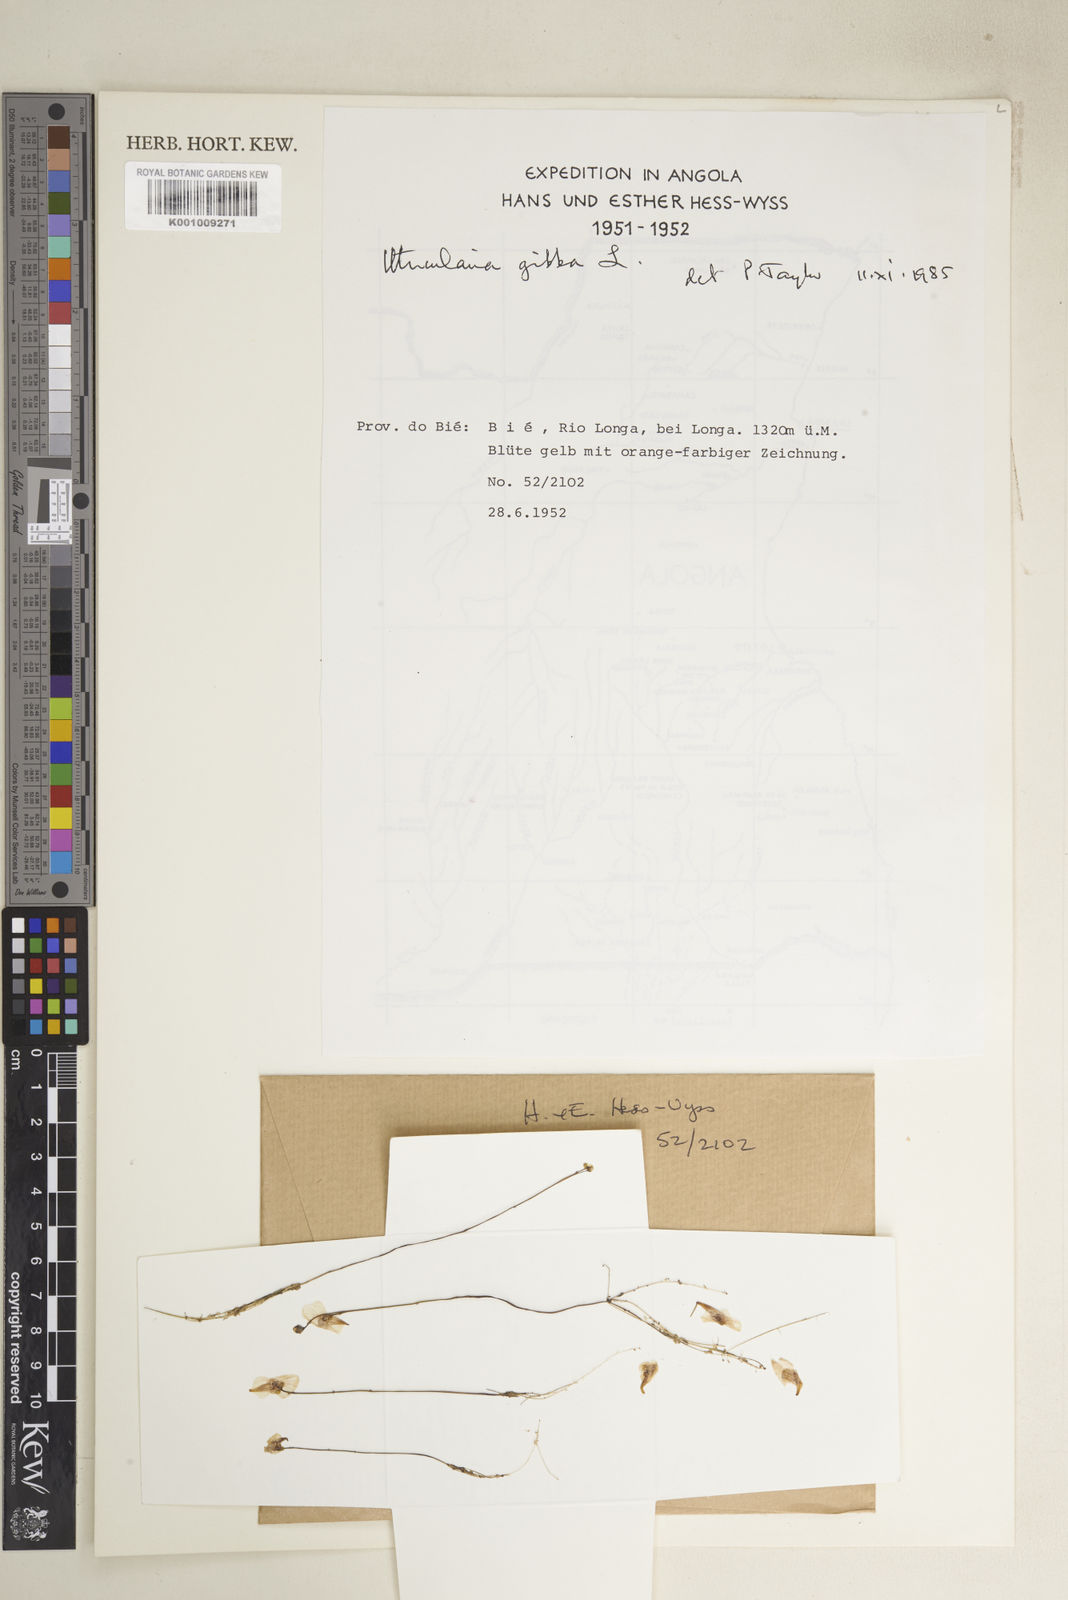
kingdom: Plantae
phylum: Tracheophyta
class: Magnoliopsida
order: Lamiales
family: Lentibulariaceae
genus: Utricularia
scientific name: Utricularia gibba
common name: Humped bladderwort
